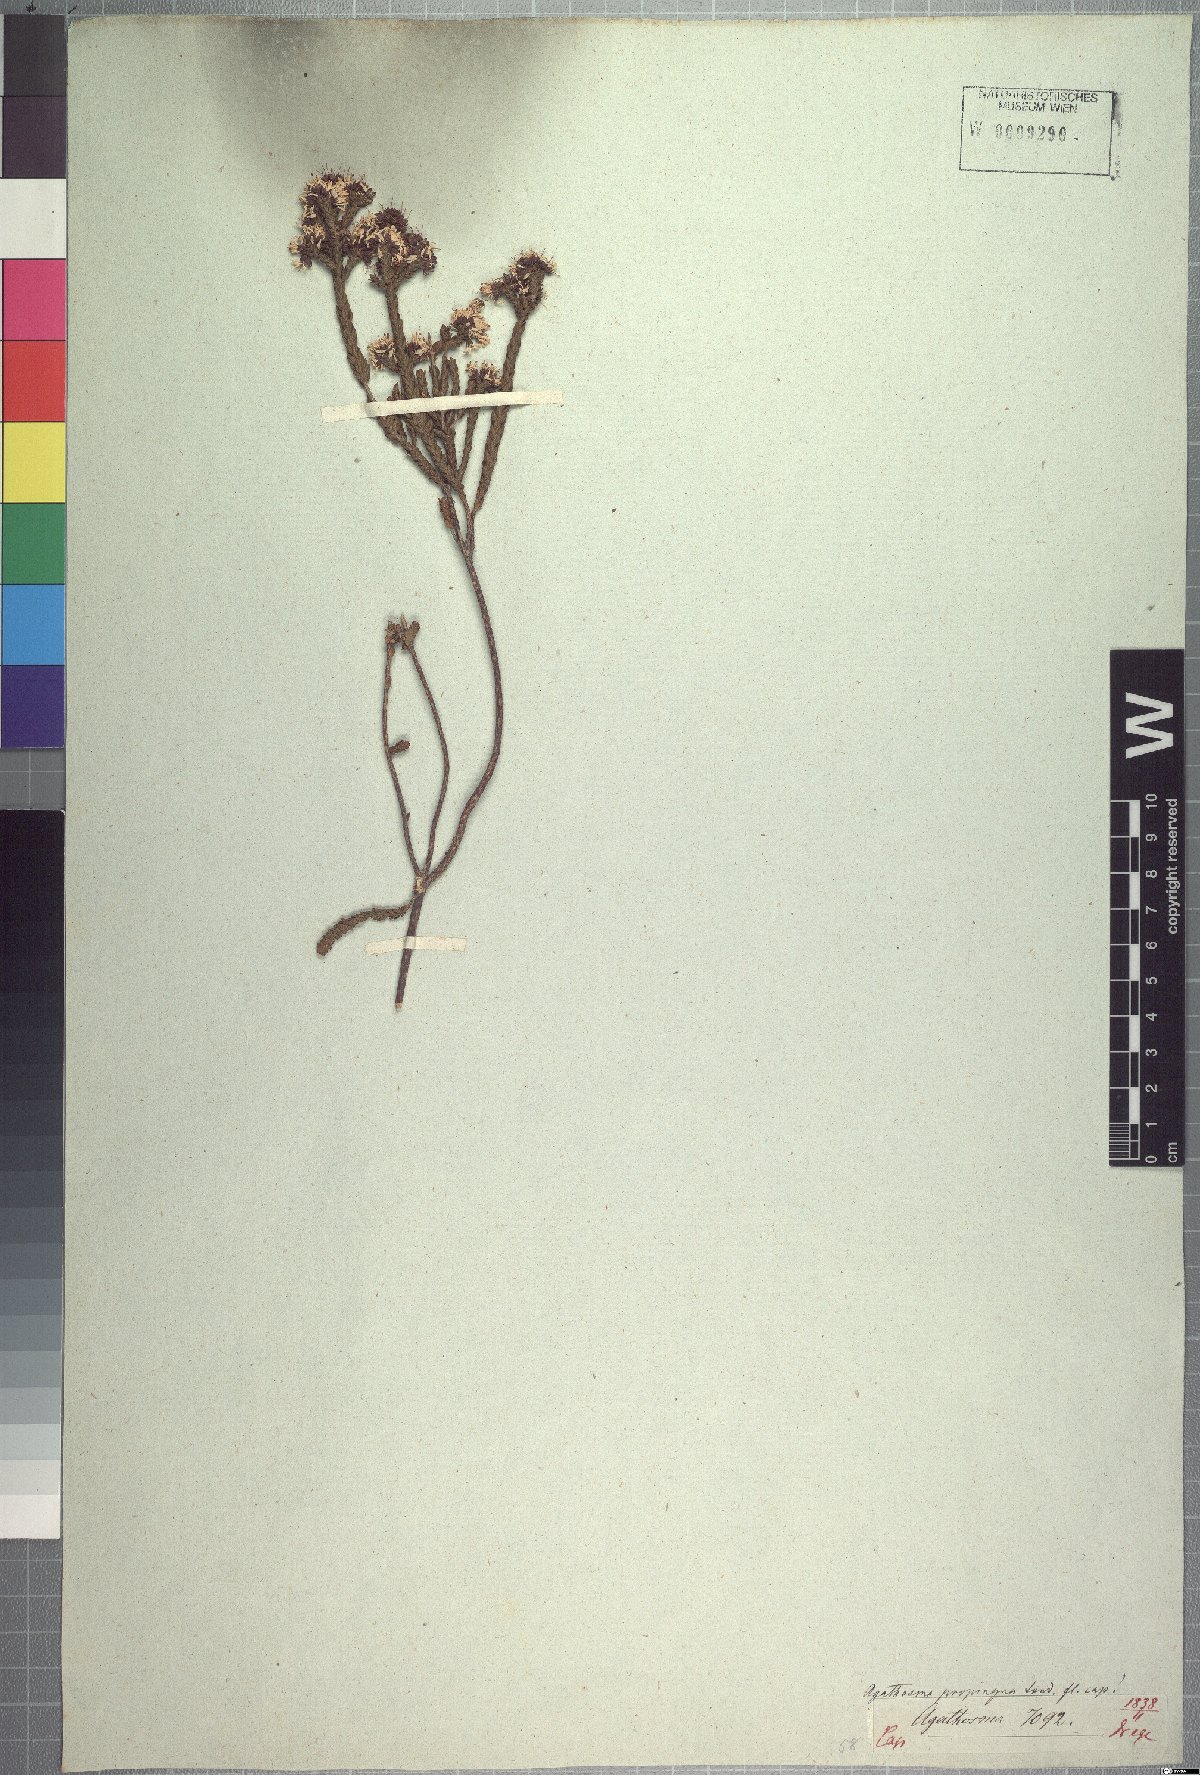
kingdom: Plantae
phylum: Tracheophyta
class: Magnoliopsida
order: Sapindales
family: Rutaceae
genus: Agathosma
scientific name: Agathosma propinqua
